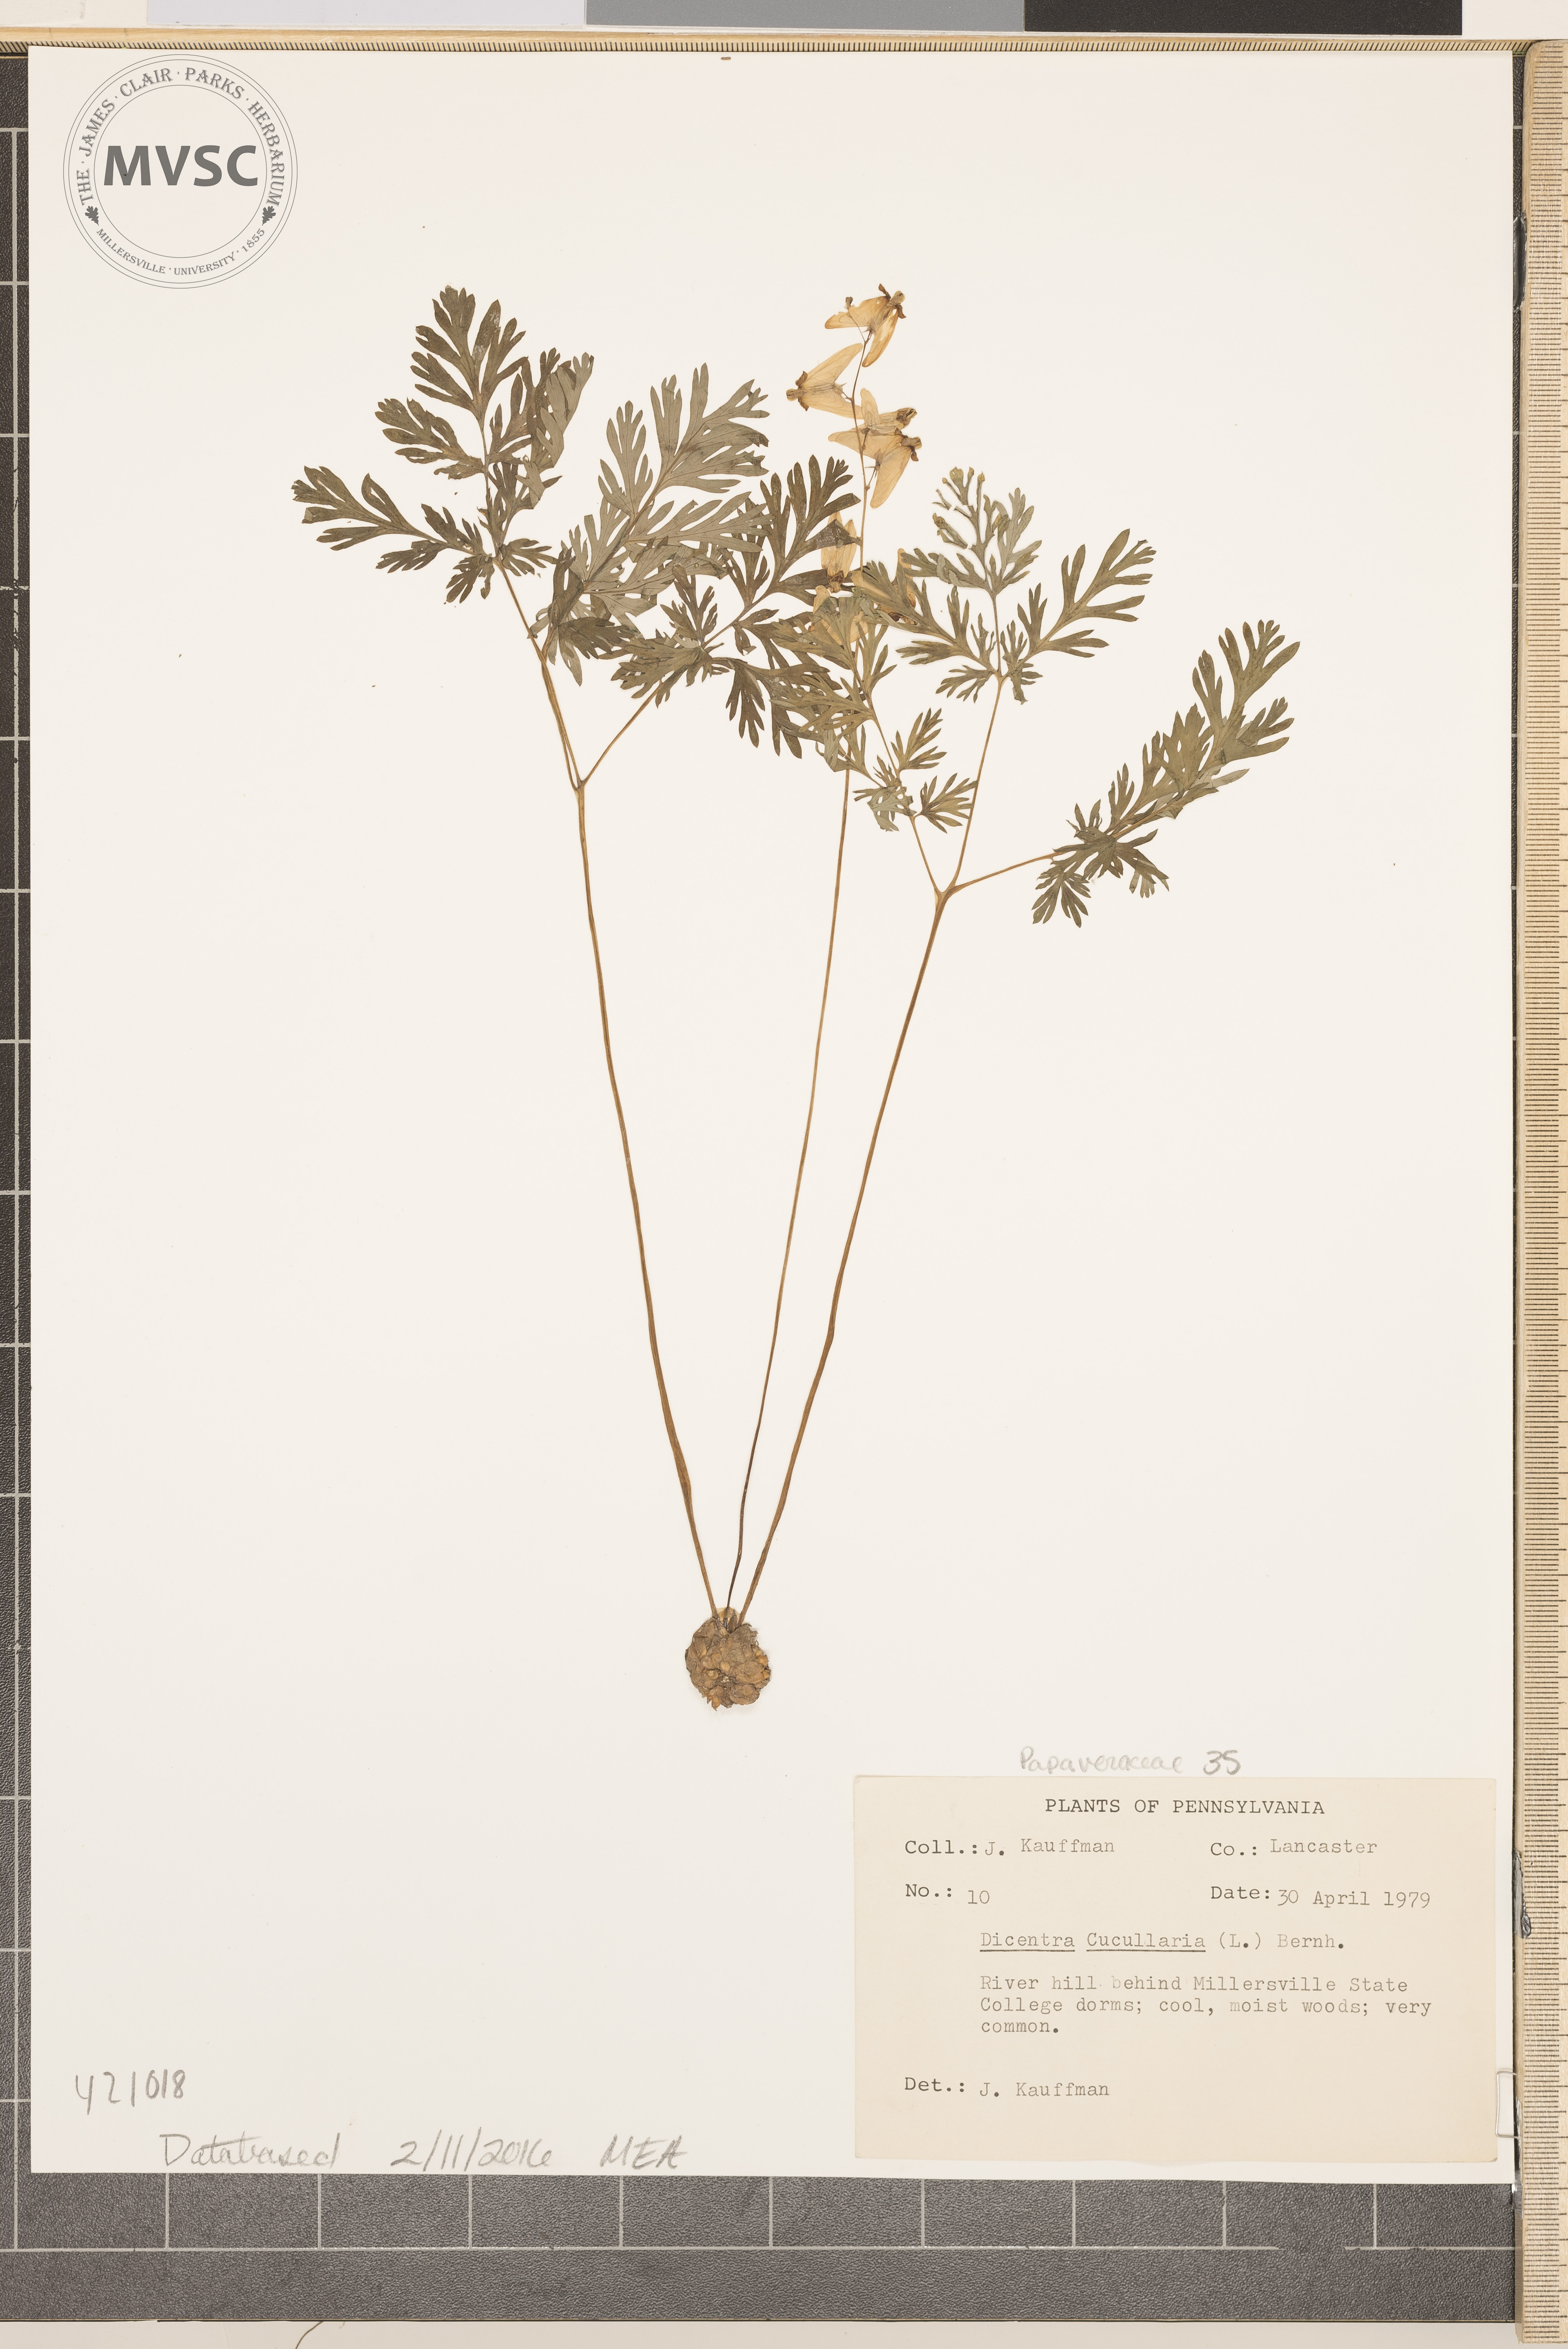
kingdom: Plantae
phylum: Tracheophyta
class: Magnoliopsida
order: Ranunculales
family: Papaveraceae
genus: Dicentra
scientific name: Dicentra cucullaria
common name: Dutchman's breeches
